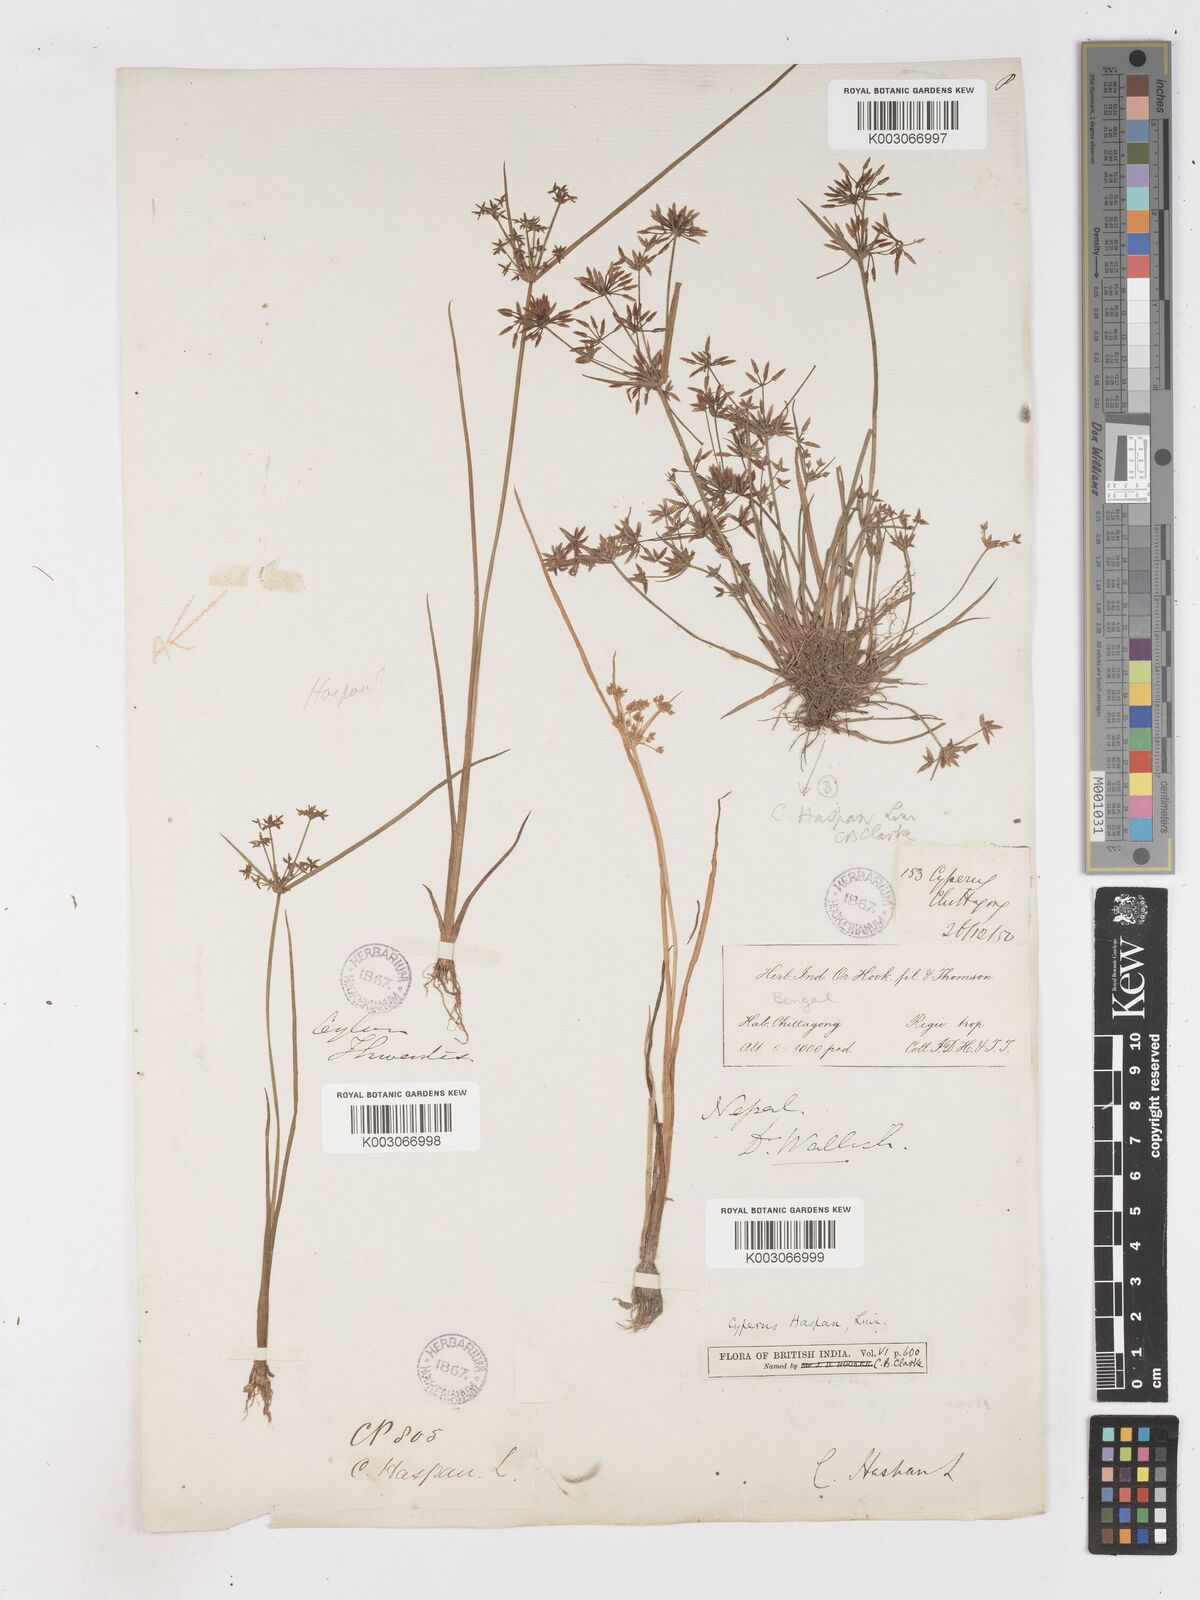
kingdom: Plantae
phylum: Tracheophyta
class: Liliopsida
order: Poales
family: Cyperaceae
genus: Cyperus
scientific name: Cyperus haspan
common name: Haspan flatsedge
